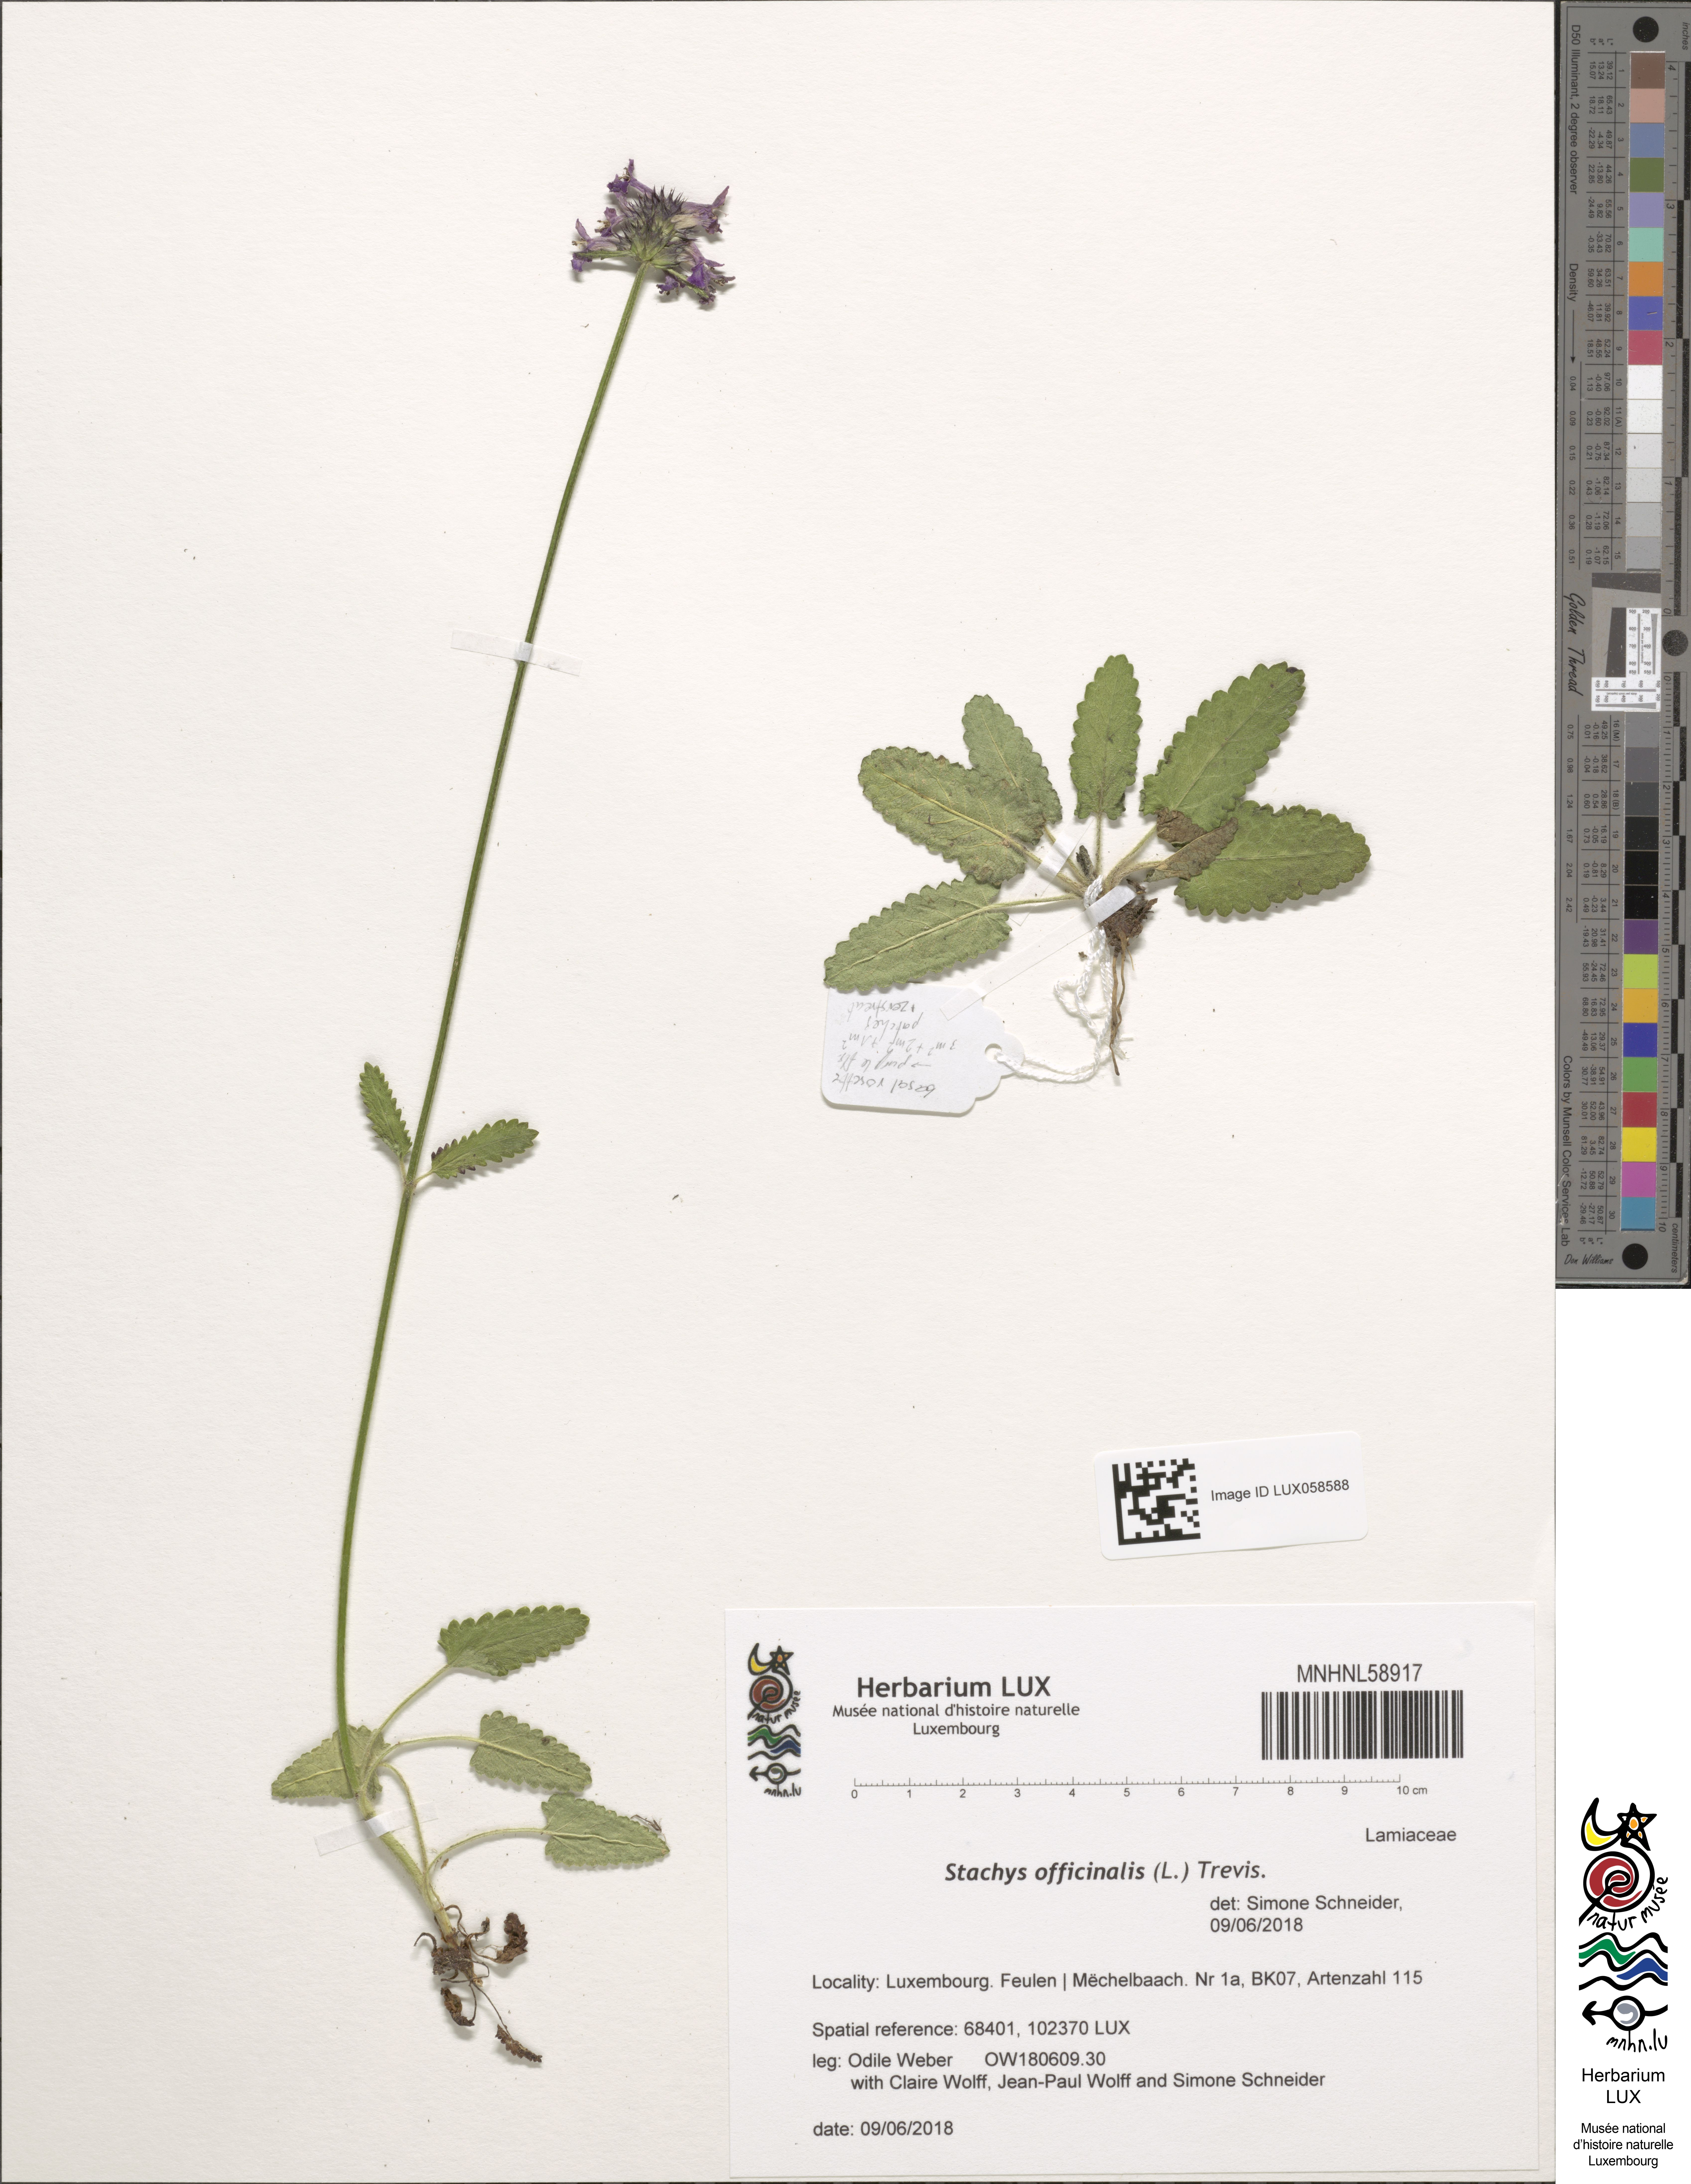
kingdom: Plantae
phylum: Tracheophyta
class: Magnoliopsida
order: Lamiales
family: Lamiaceae
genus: Betonica
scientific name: Betonica officinalis
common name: Bishop's-wort
